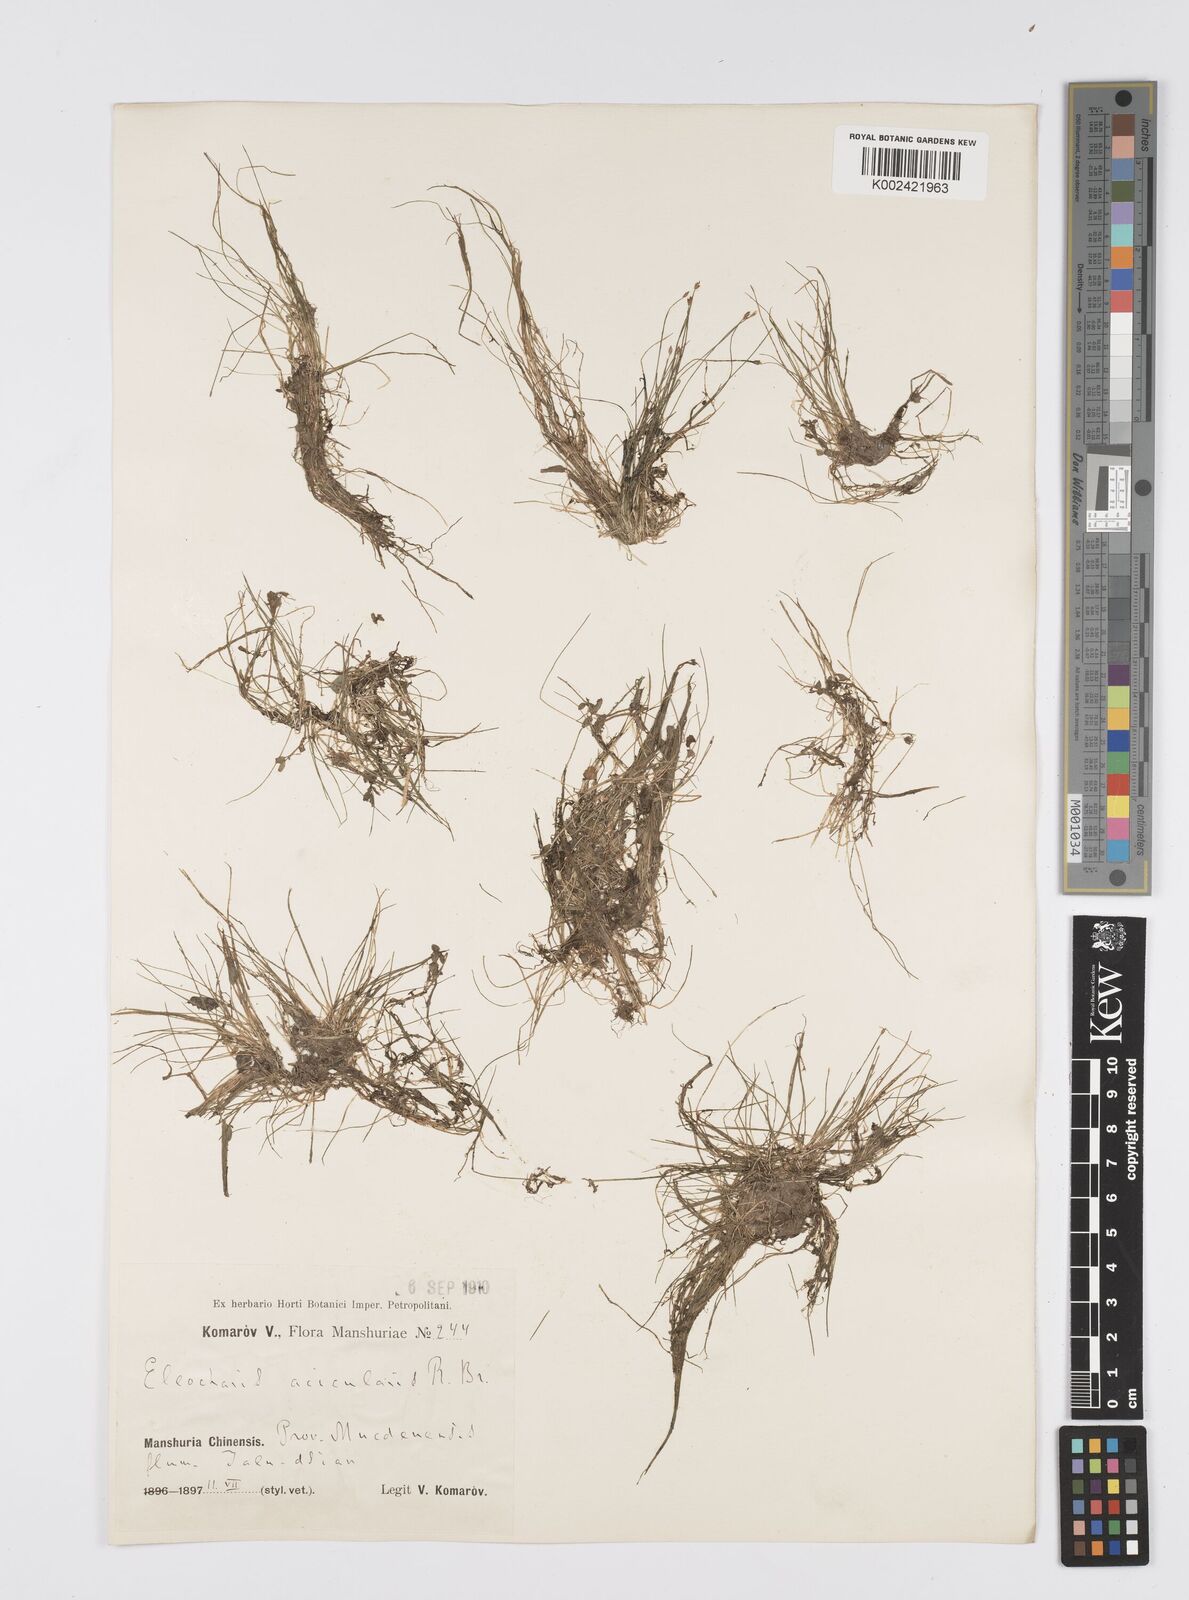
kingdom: Plantae
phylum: Tracheophyta
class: Liliopsida
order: Poales
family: Cyperaceae
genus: Eleocharis
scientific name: Eleocharis acicularis
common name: Needle spike-rush
